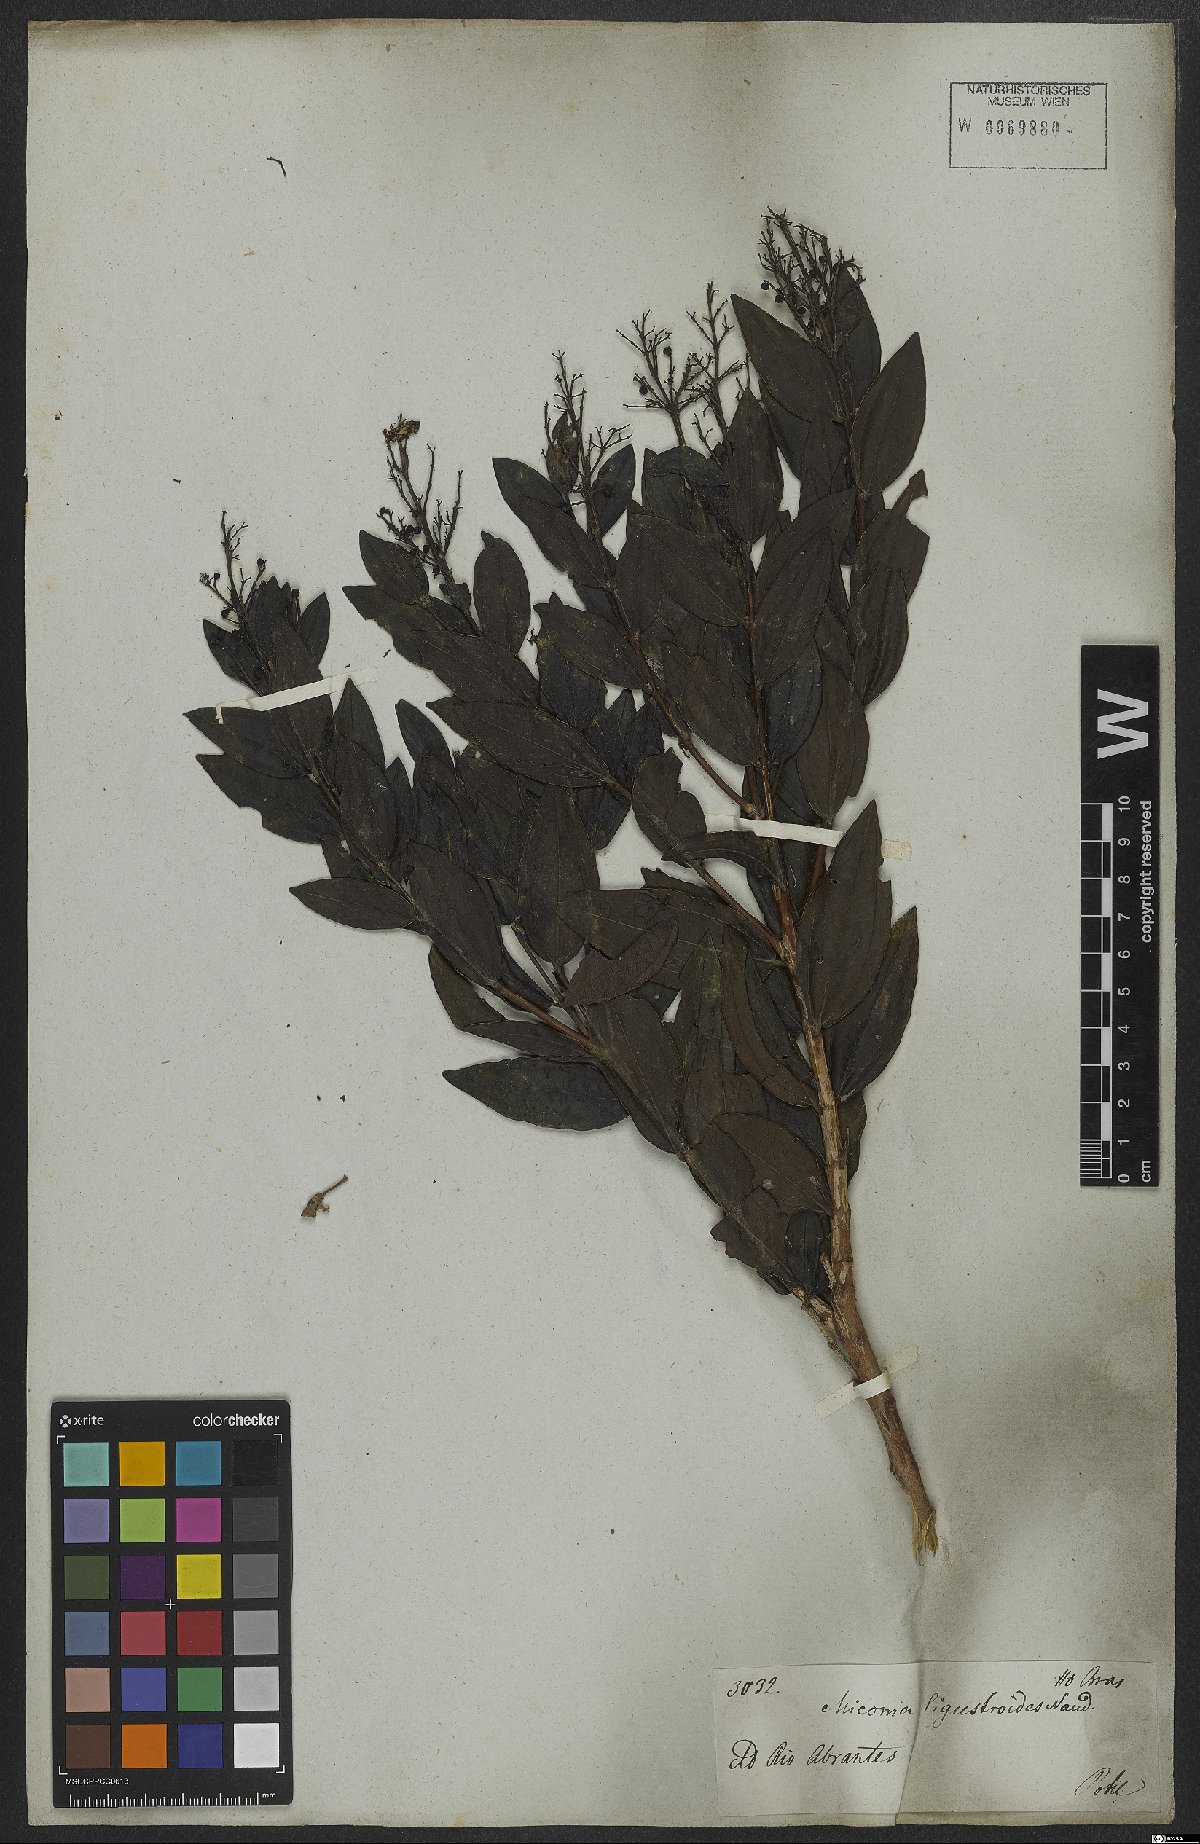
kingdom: Plantae
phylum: Tracheophyta
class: Magnoliopsida
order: Myrtales
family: Melastomataceae
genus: Miconia
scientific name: Miconia ligustroides
